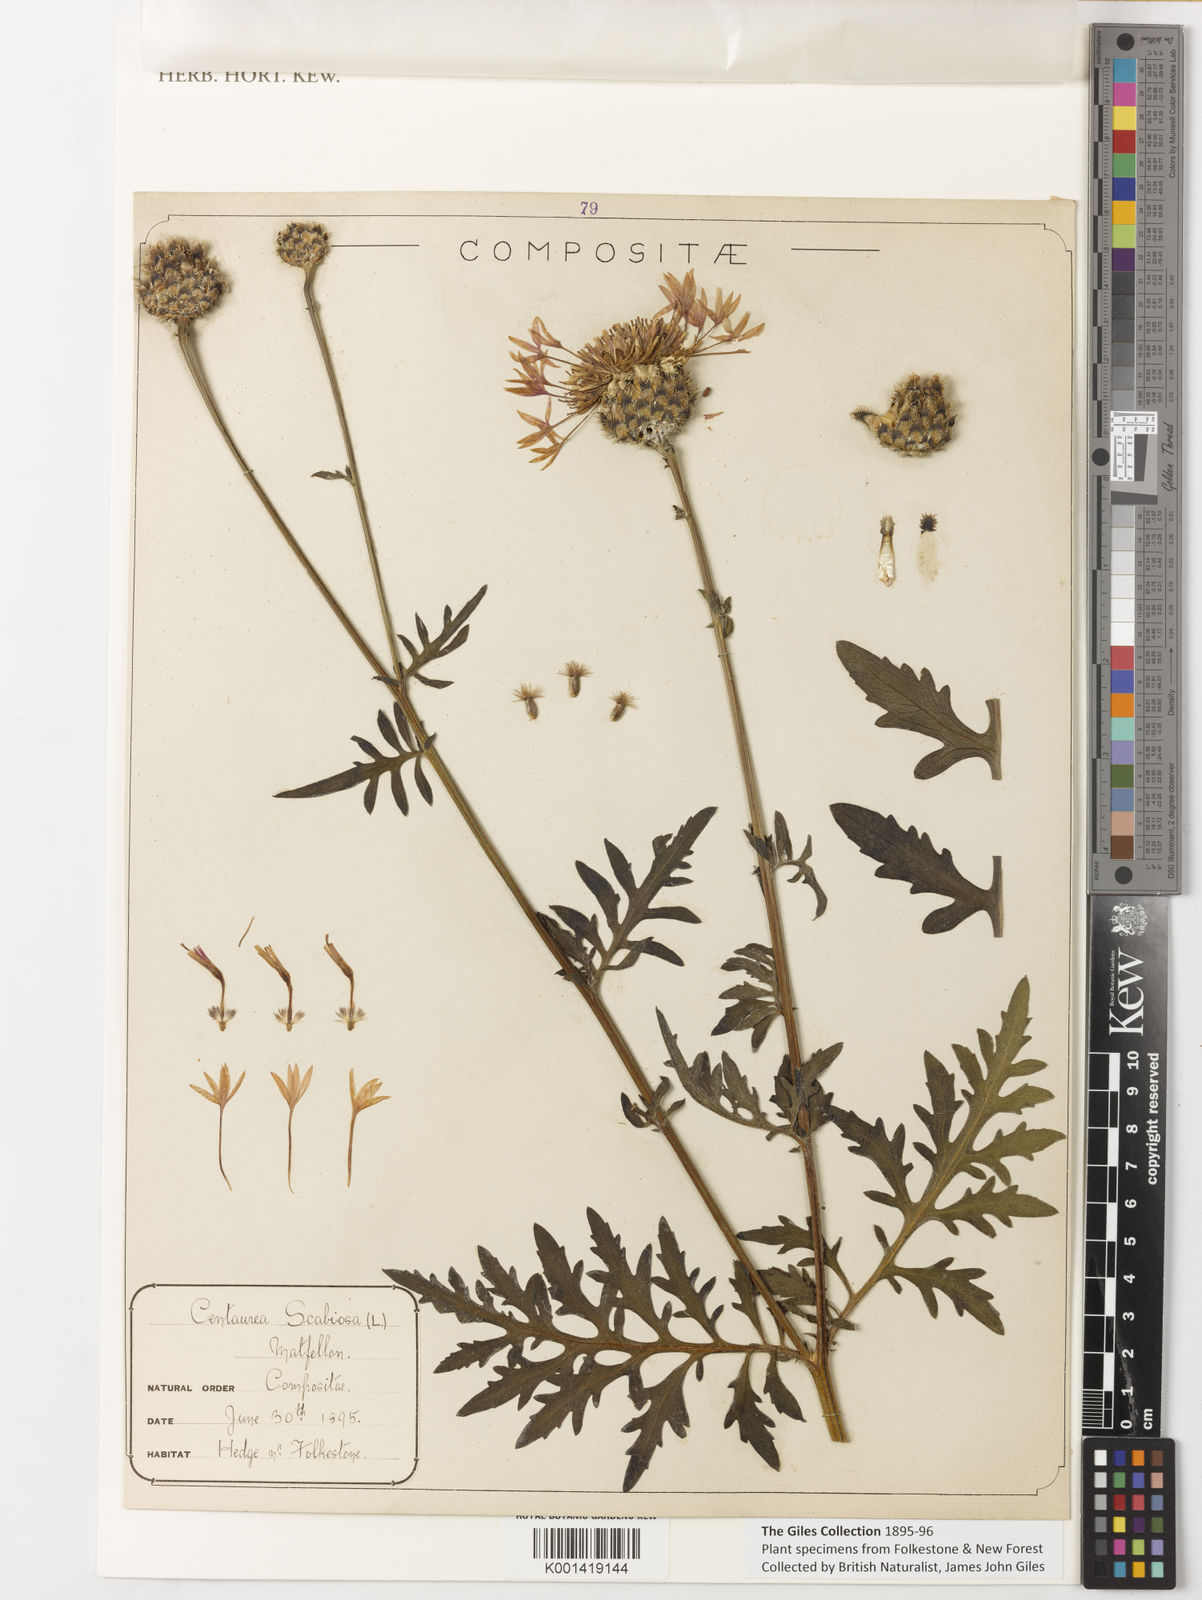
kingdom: Plantae
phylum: Tracheophyta
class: Magnoliopsida
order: Asterales
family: Asteraceae
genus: Centaurea
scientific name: Centaurea scabiosa
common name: Greater knapweed
